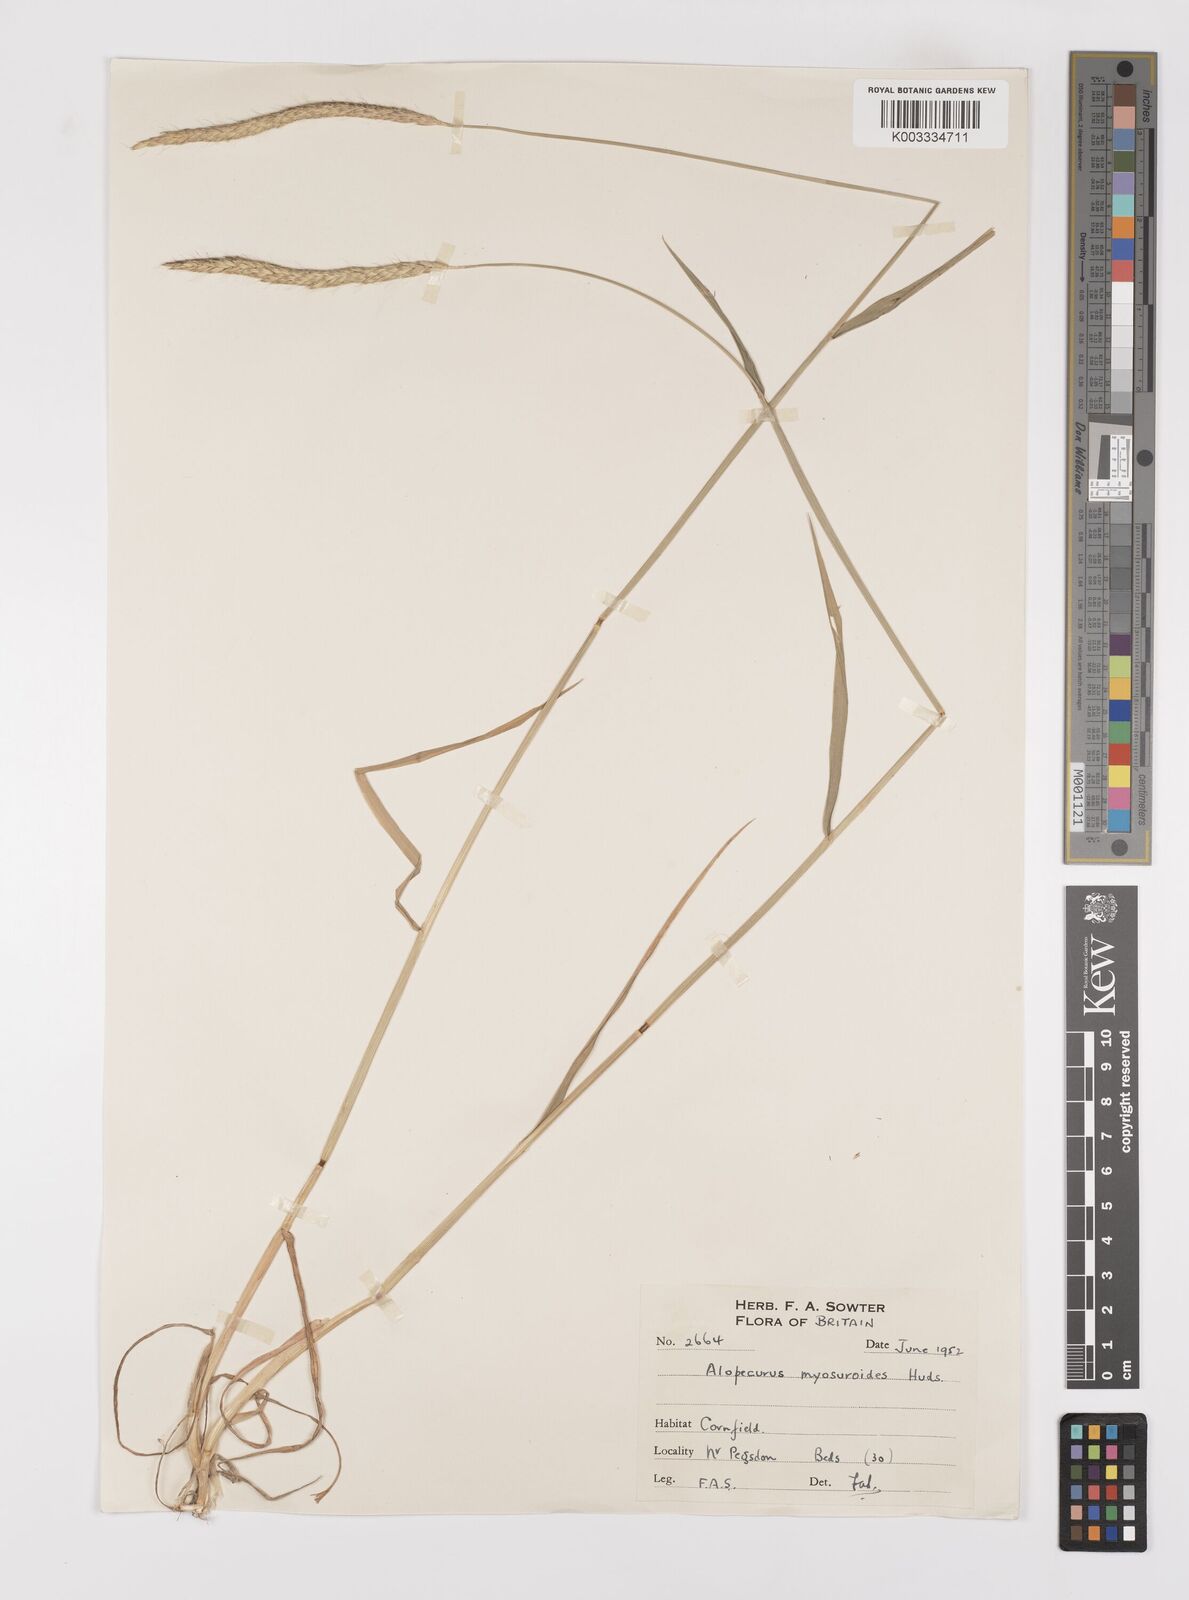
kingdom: Plantae
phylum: Tracheophyta
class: Liliopsida
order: Poales
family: Poaceae
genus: Alopecurus
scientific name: Alopecurus myosuroides
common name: Black-grass
